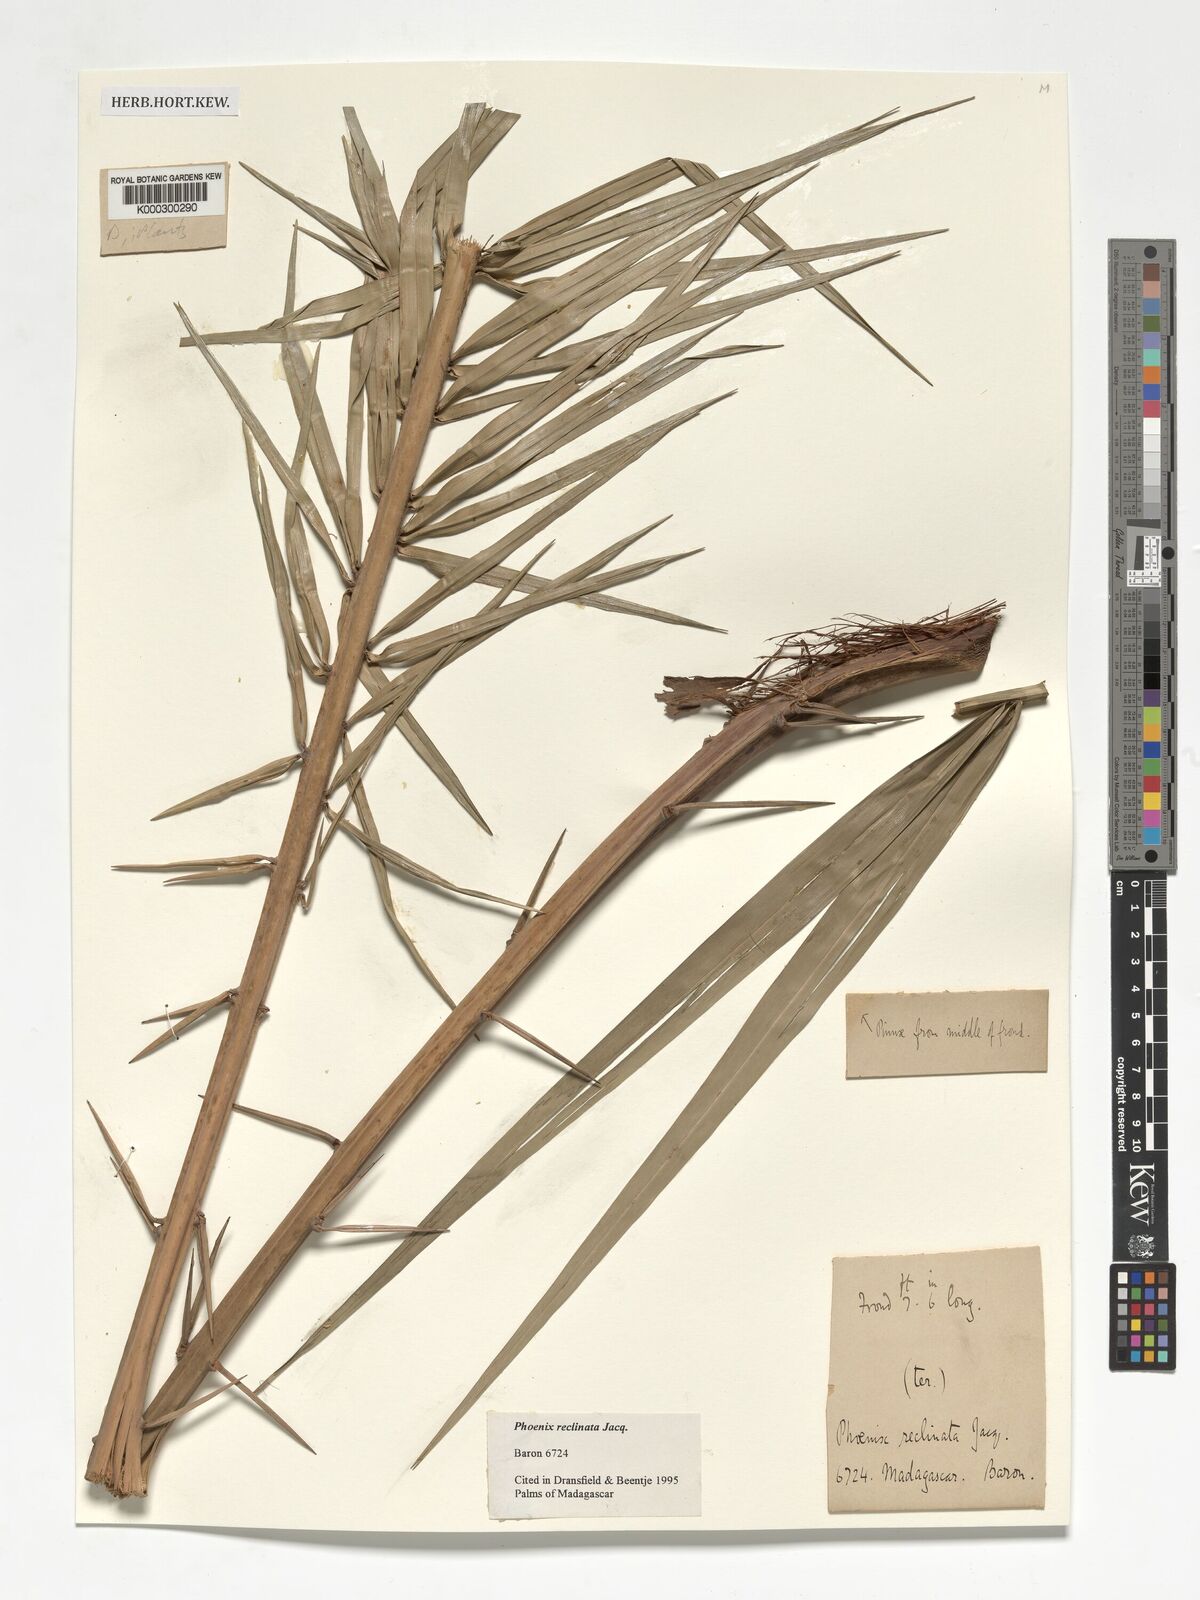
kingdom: Plantae
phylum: Tracheophyta
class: Liliopsida
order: Arecales
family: Arecaceae
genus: Phoenix
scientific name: Phoenix reclinata
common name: Senegal date palm
